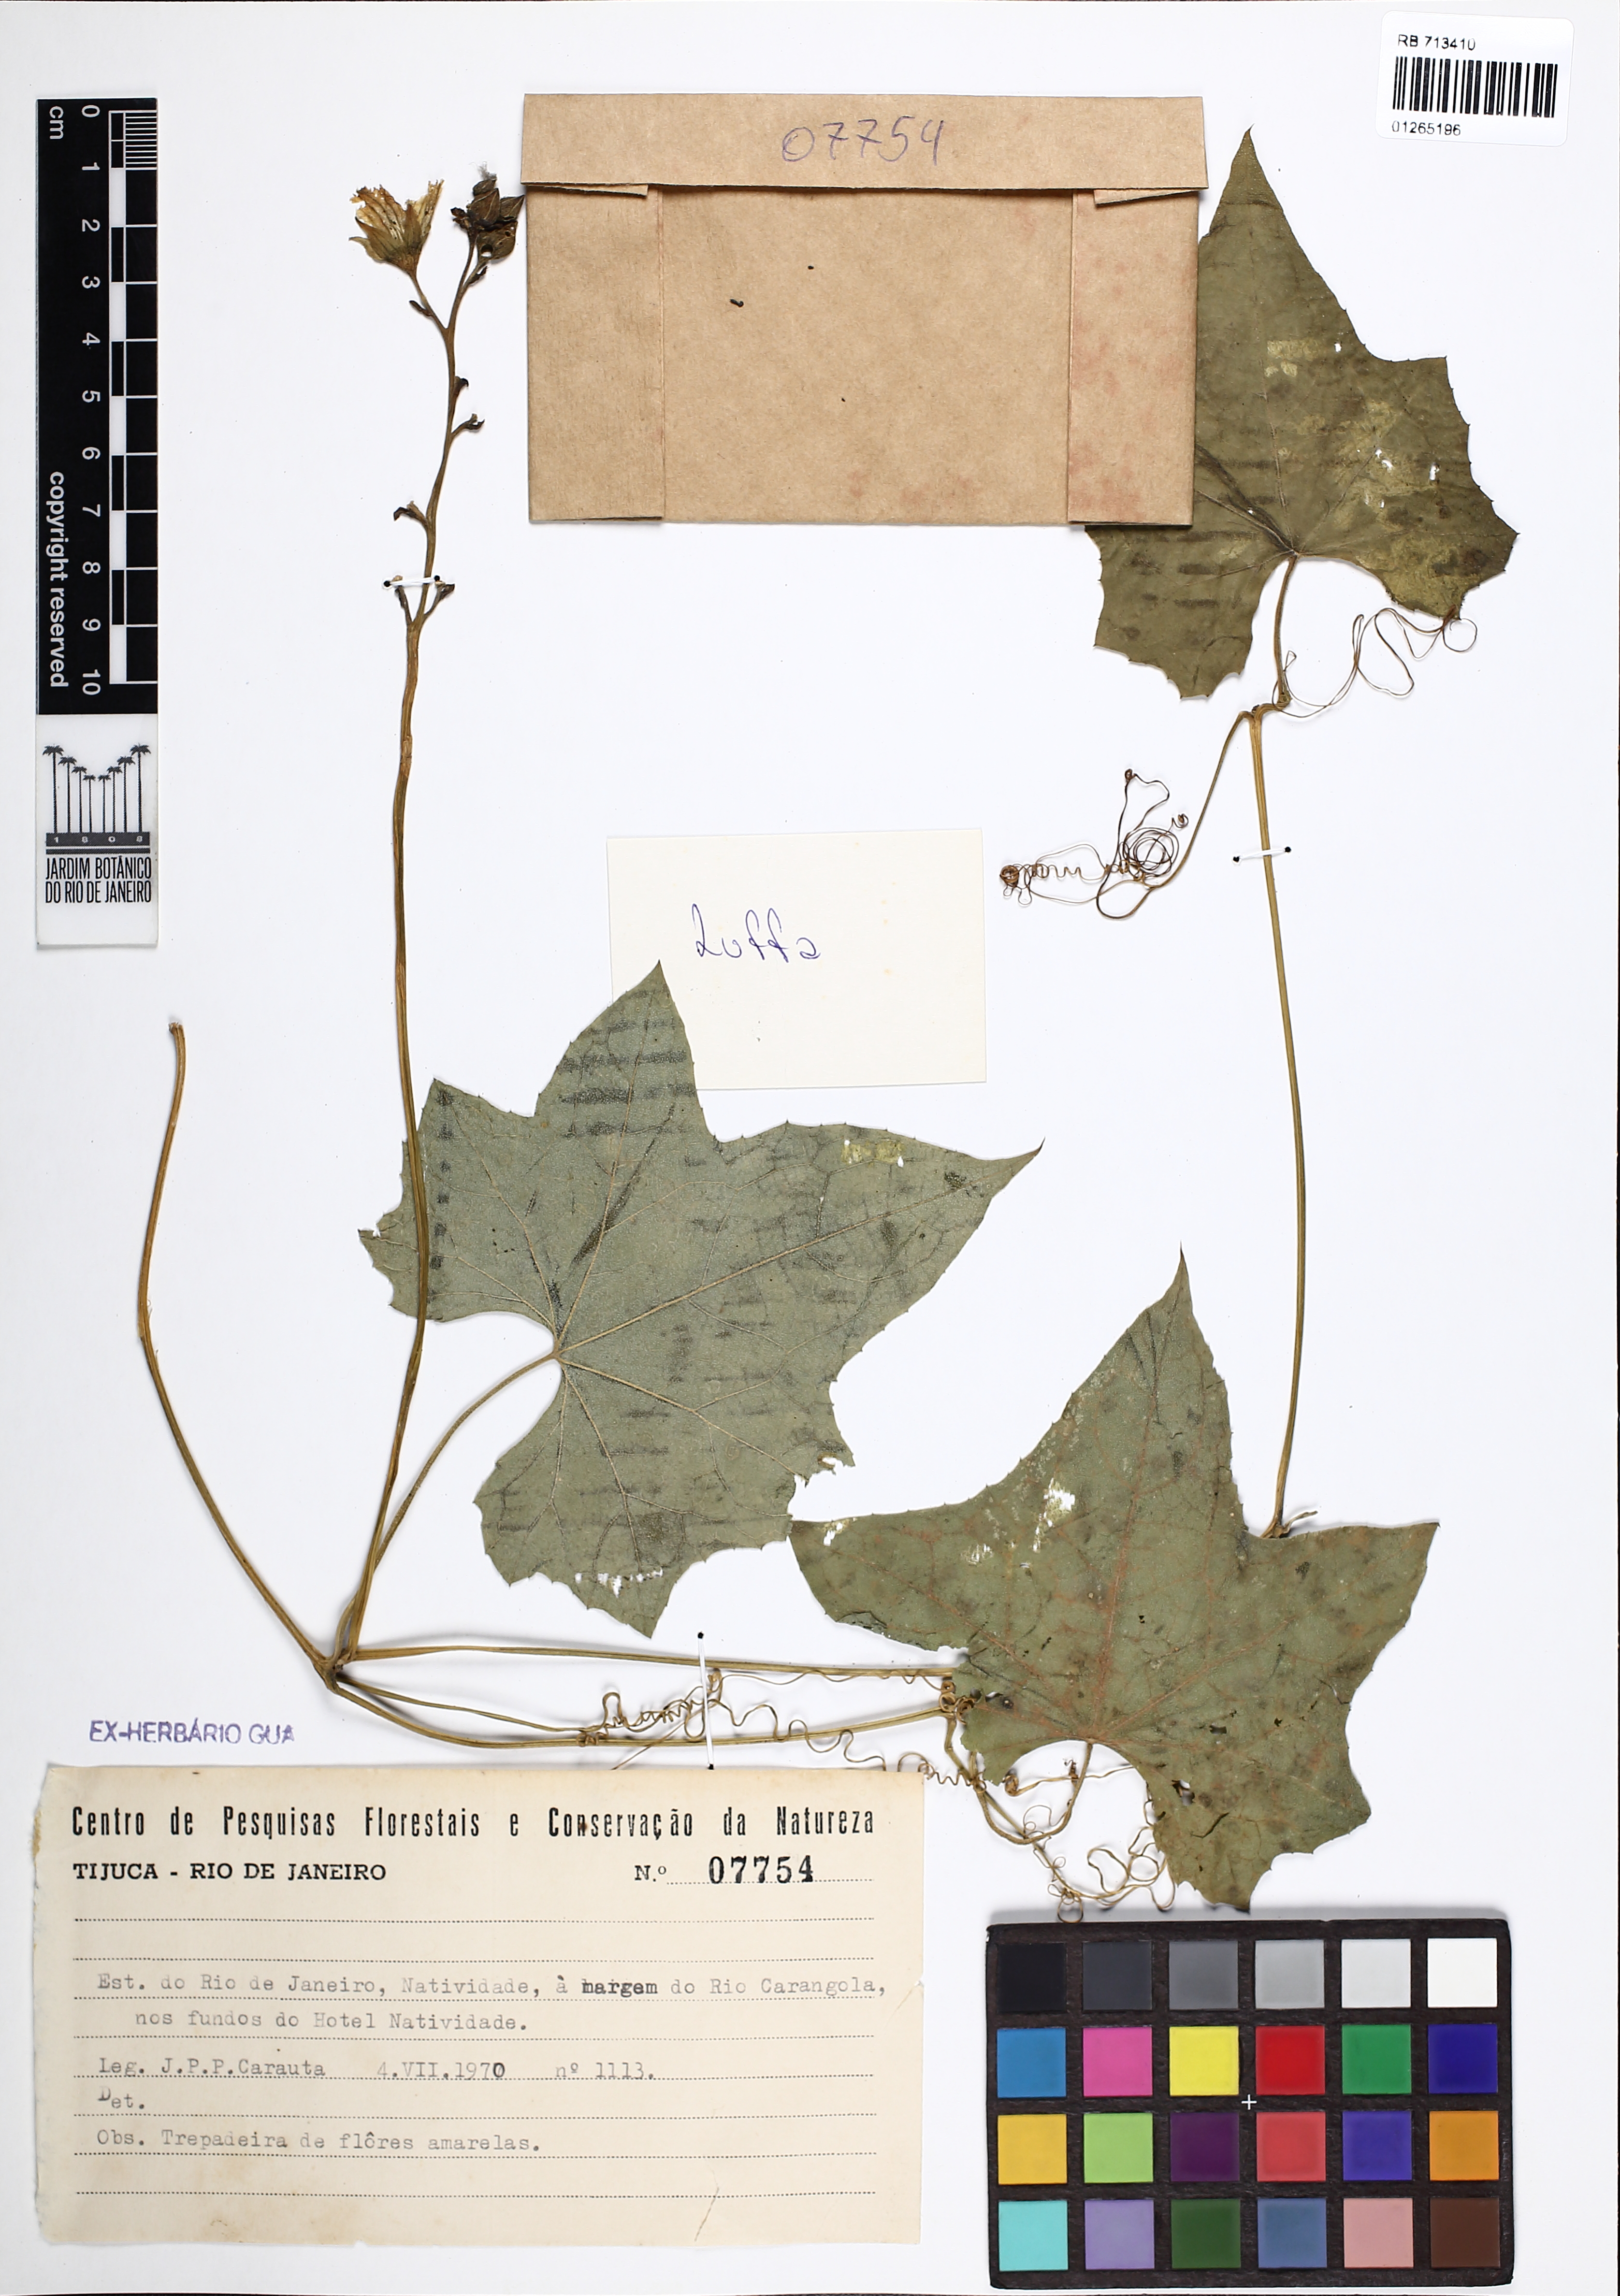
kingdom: Plantae
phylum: Tracheophyta
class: Magnoliopsida
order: Cucurbitales
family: Cucurbitaceae
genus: Luffa
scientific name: Luffa
